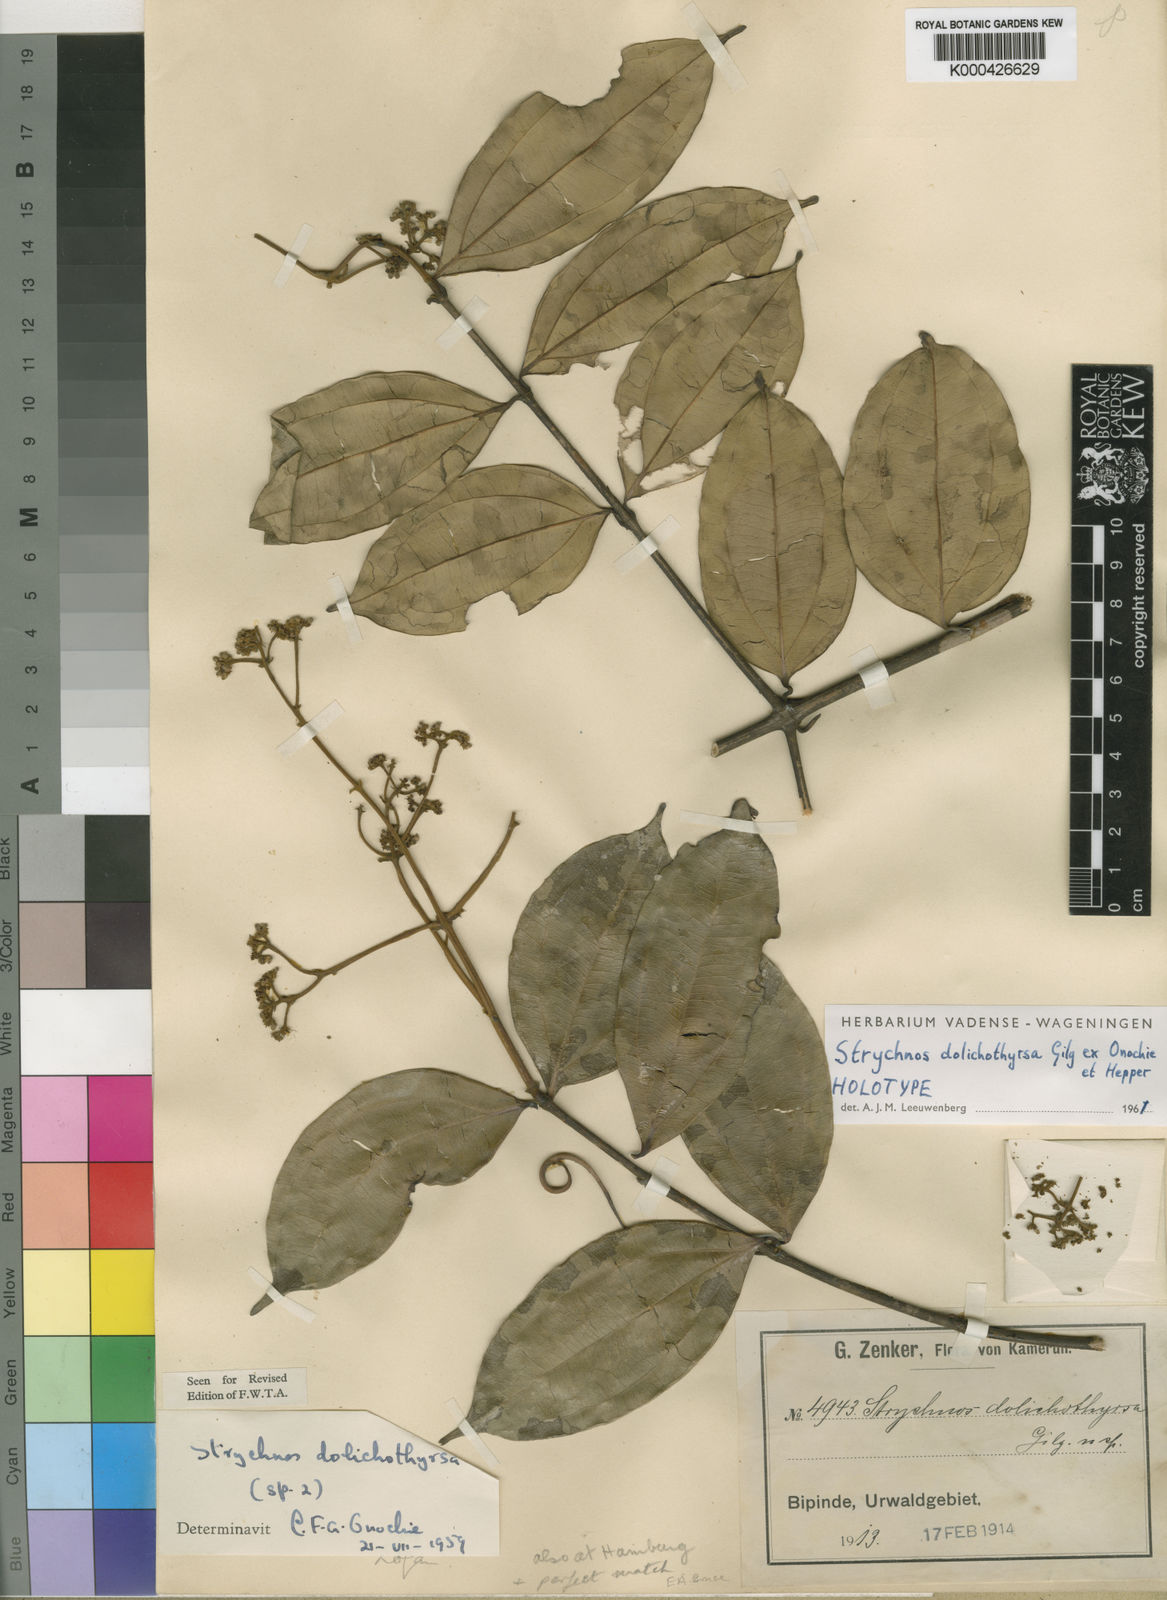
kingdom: Plantae
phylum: Tracheophyta
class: Magnoliopsida
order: Gentianales
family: Loganiaceae
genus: Strychnos
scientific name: Strychnos dolichothyrsa
